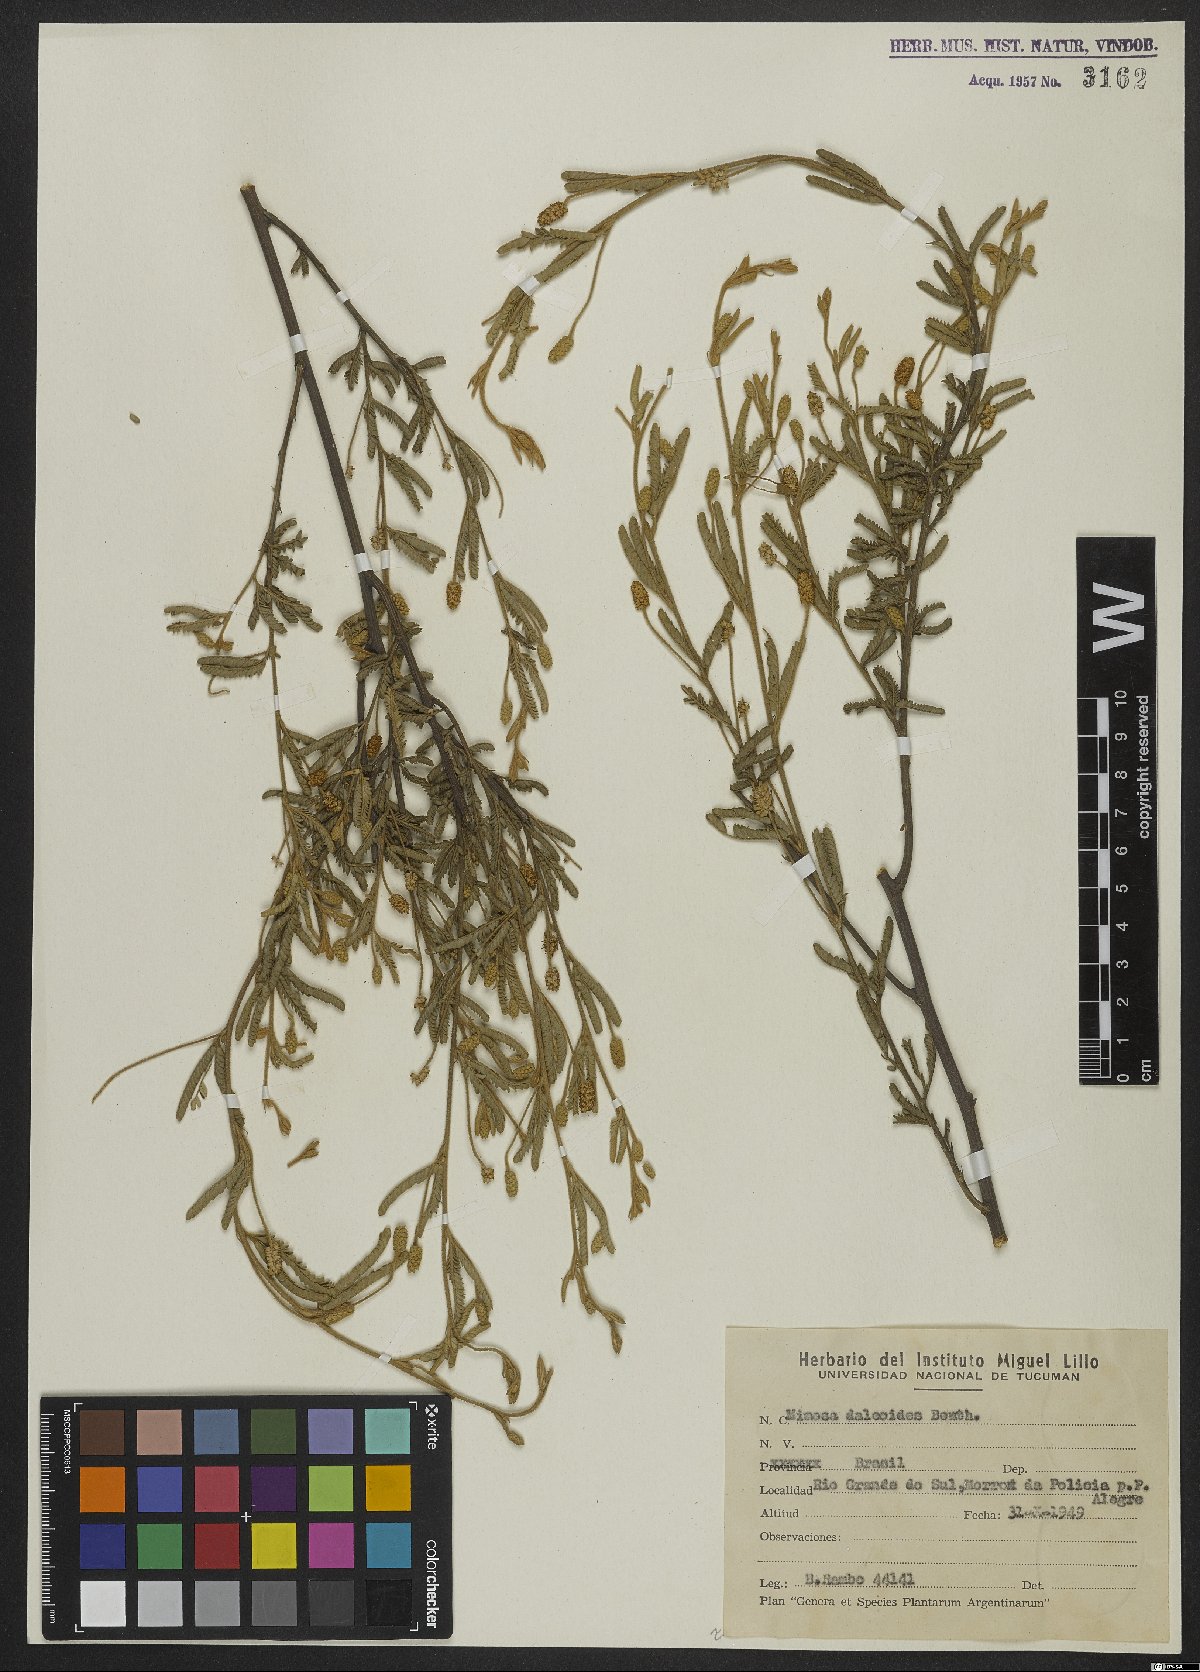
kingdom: Plantae
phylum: Tracheophyta
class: Magnoliopsida
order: Fabales
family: Fabaceae
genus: Mimosa
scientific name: Mimosa daleoides
